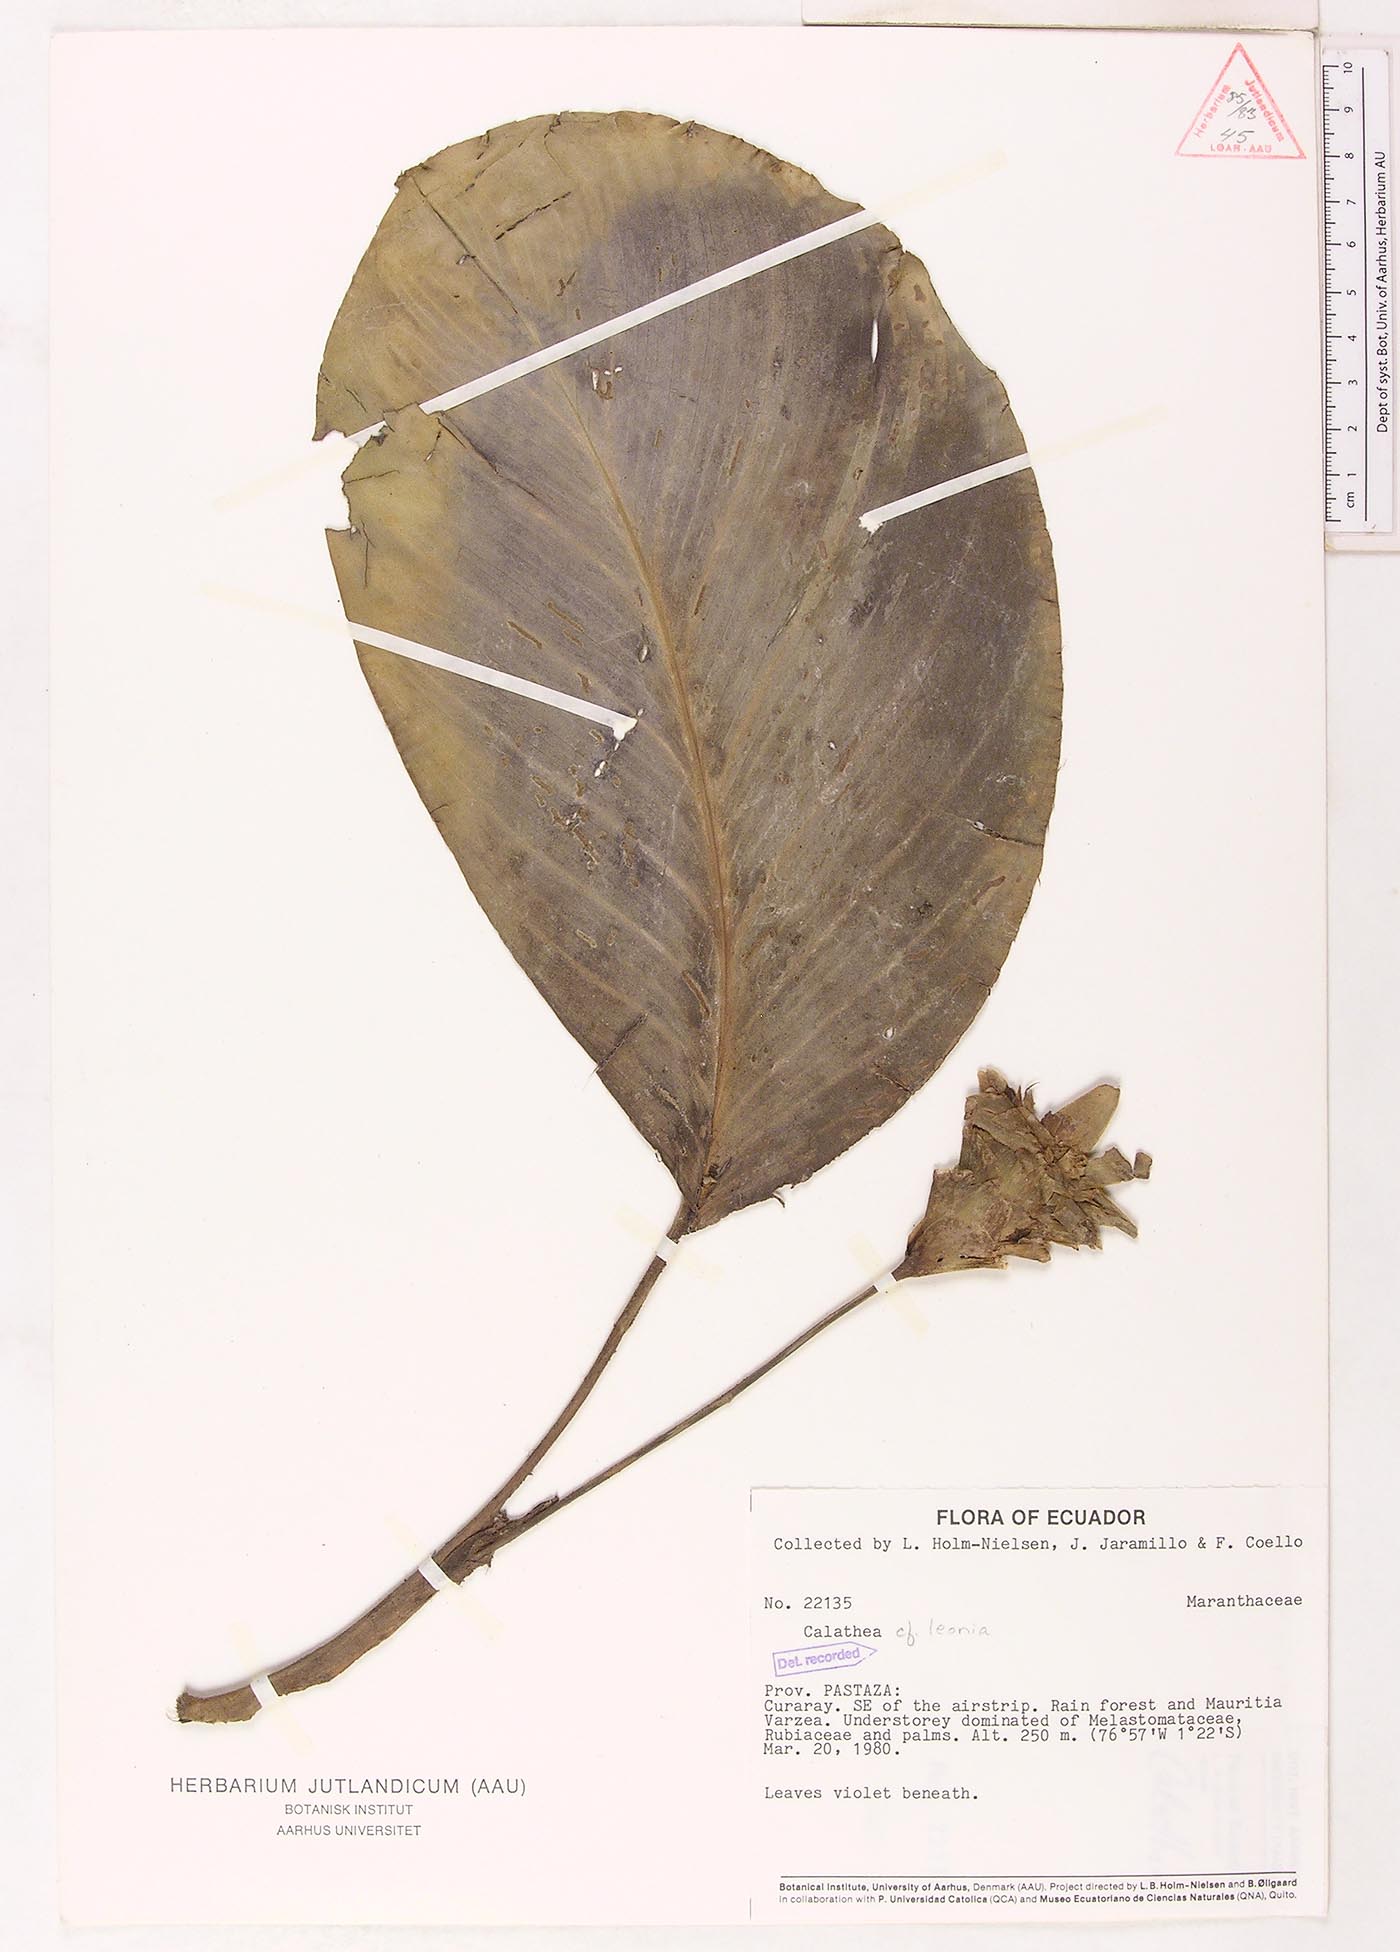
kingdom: Plantae
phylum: Tracheophyta
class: Liliopsida
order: Zingiberales
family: Marantaceae
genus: Goeppertia
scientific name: Goeppertia leonia
